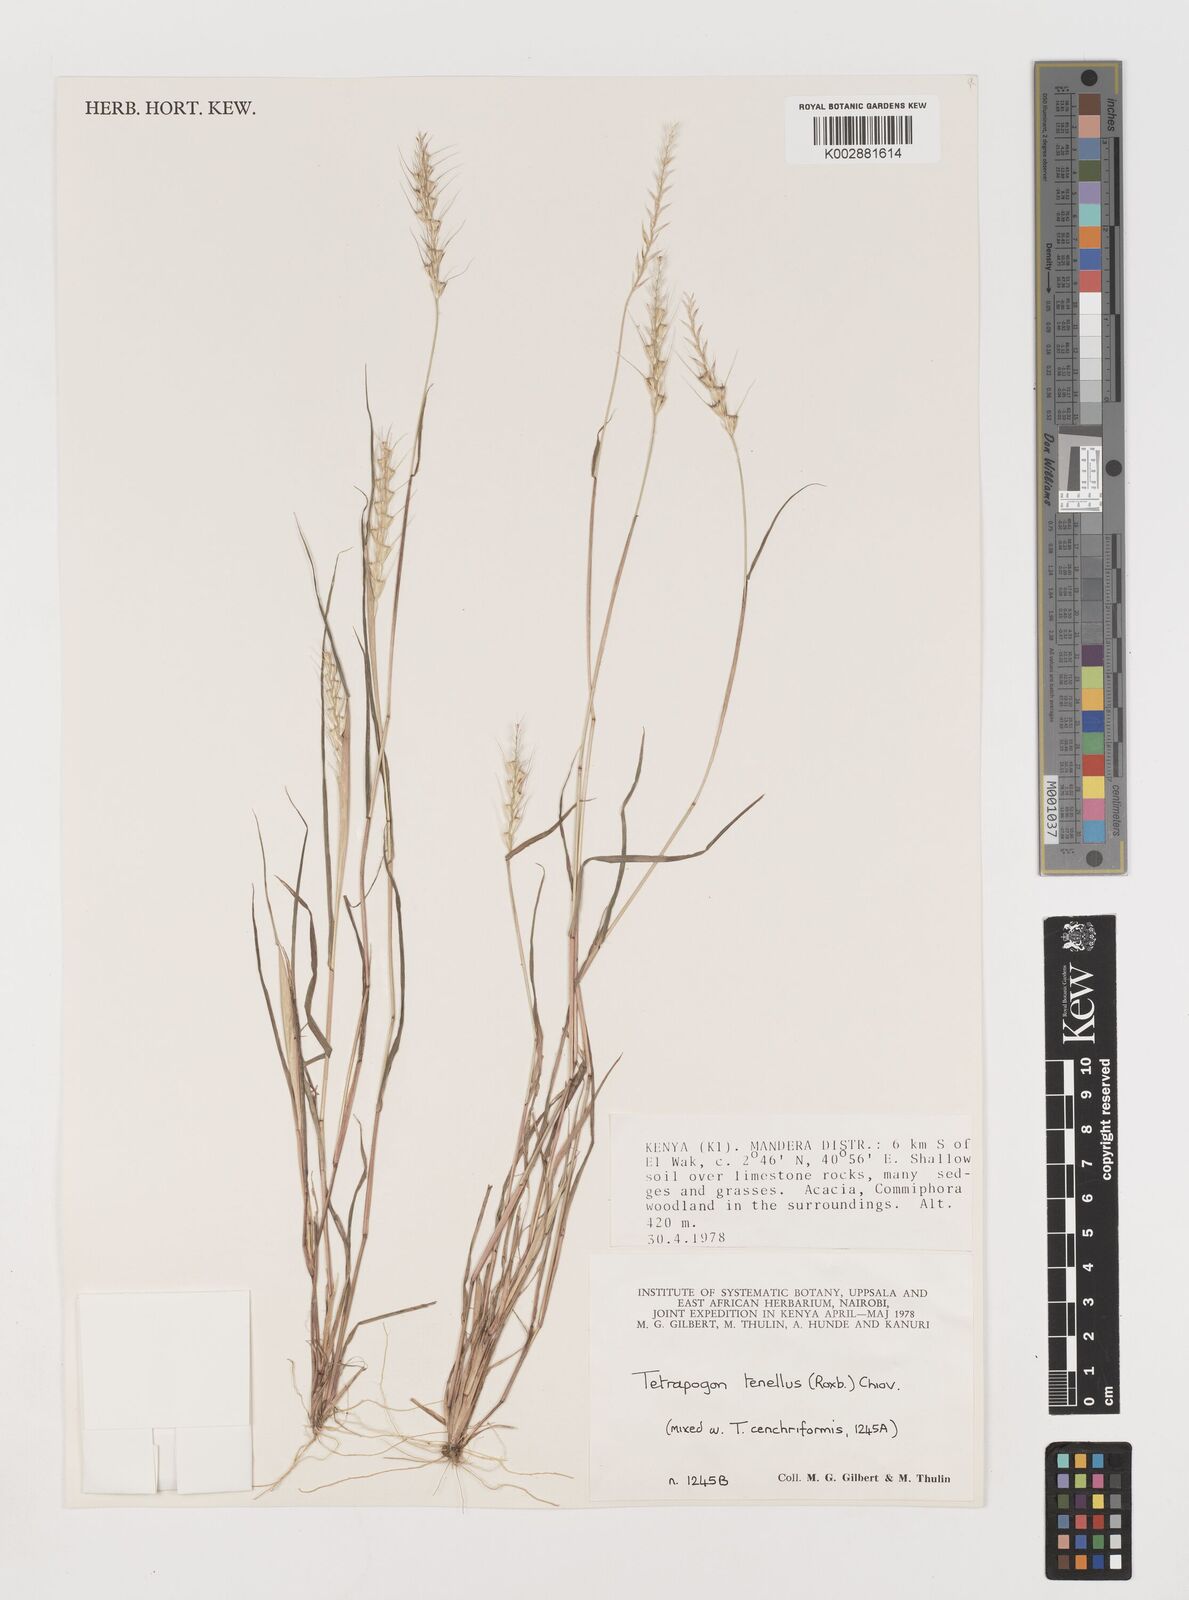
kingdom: Plantae
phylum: Tracheophyta
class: Liliopsida
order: Poales
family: Poaceae
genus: Tetrapogon
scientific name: Tetrapogon tenellus
